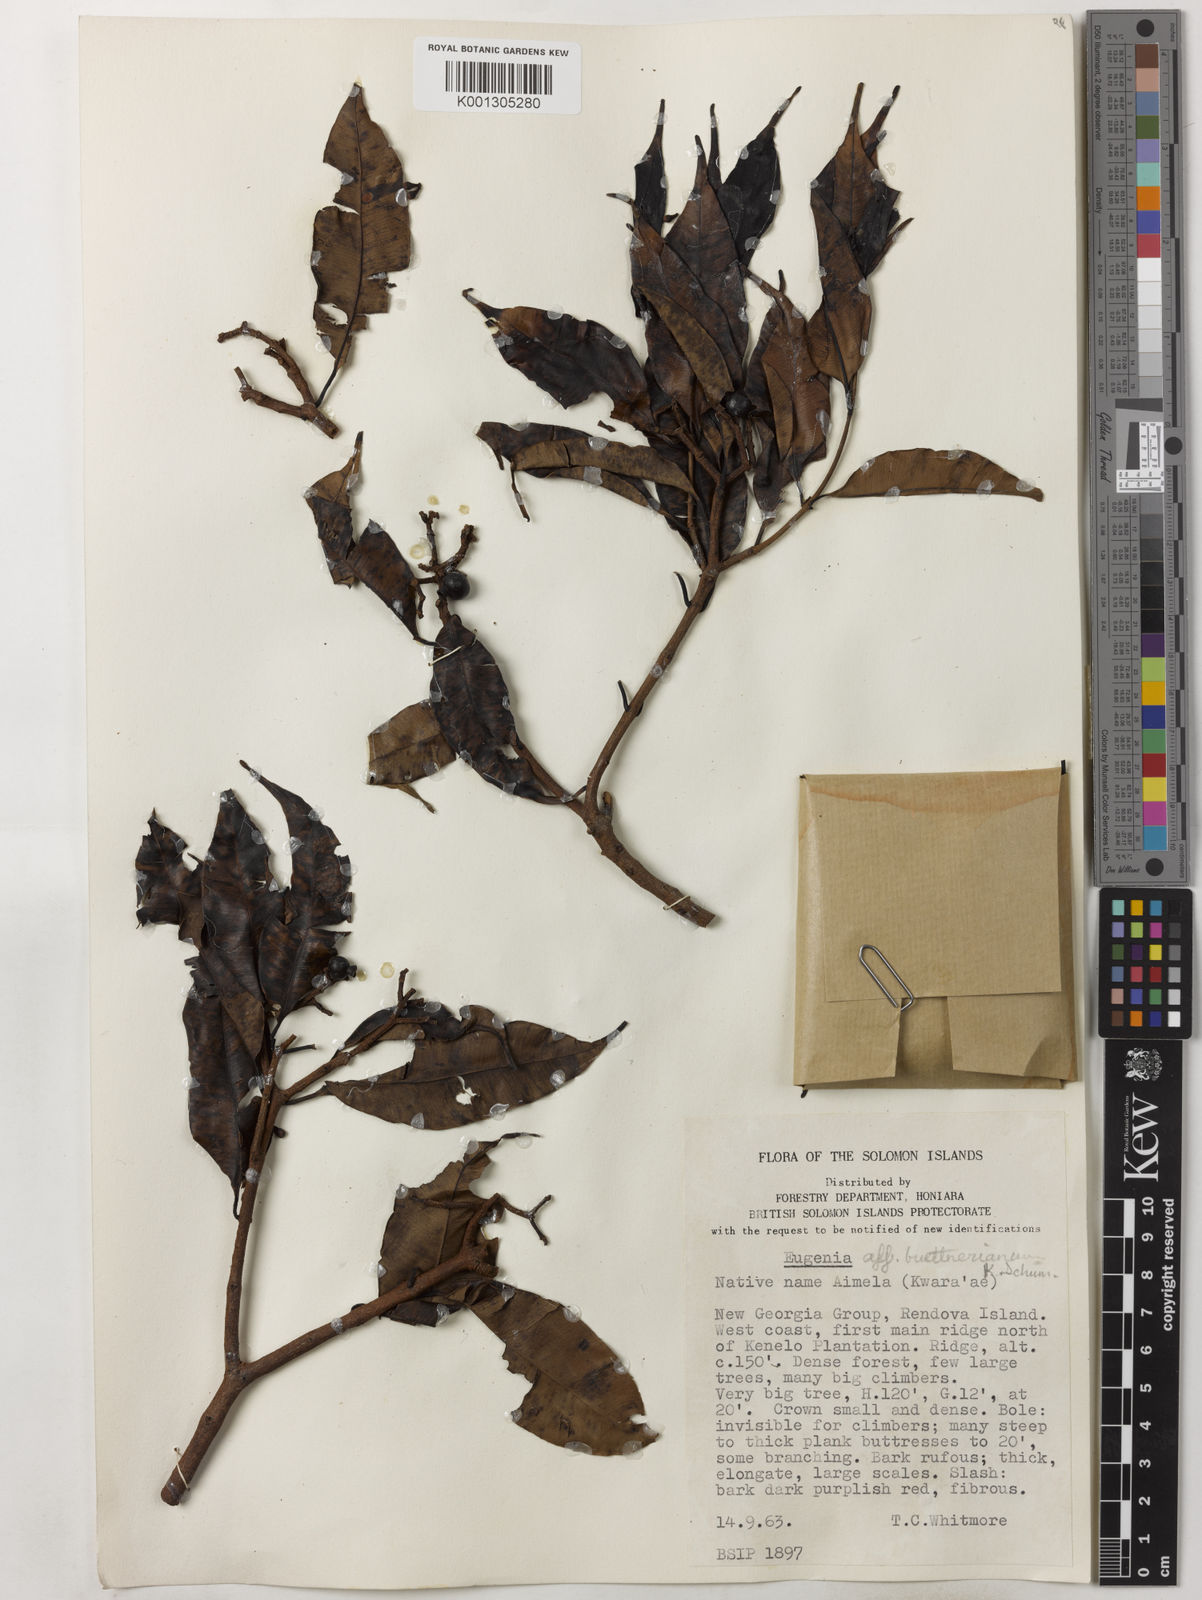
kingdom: Plantae
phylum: Tracheophyta
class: Magnoliopsida
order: Myrtales
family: Myrtaceae
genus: Syzygium
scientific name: Syzygium buettnerianum
